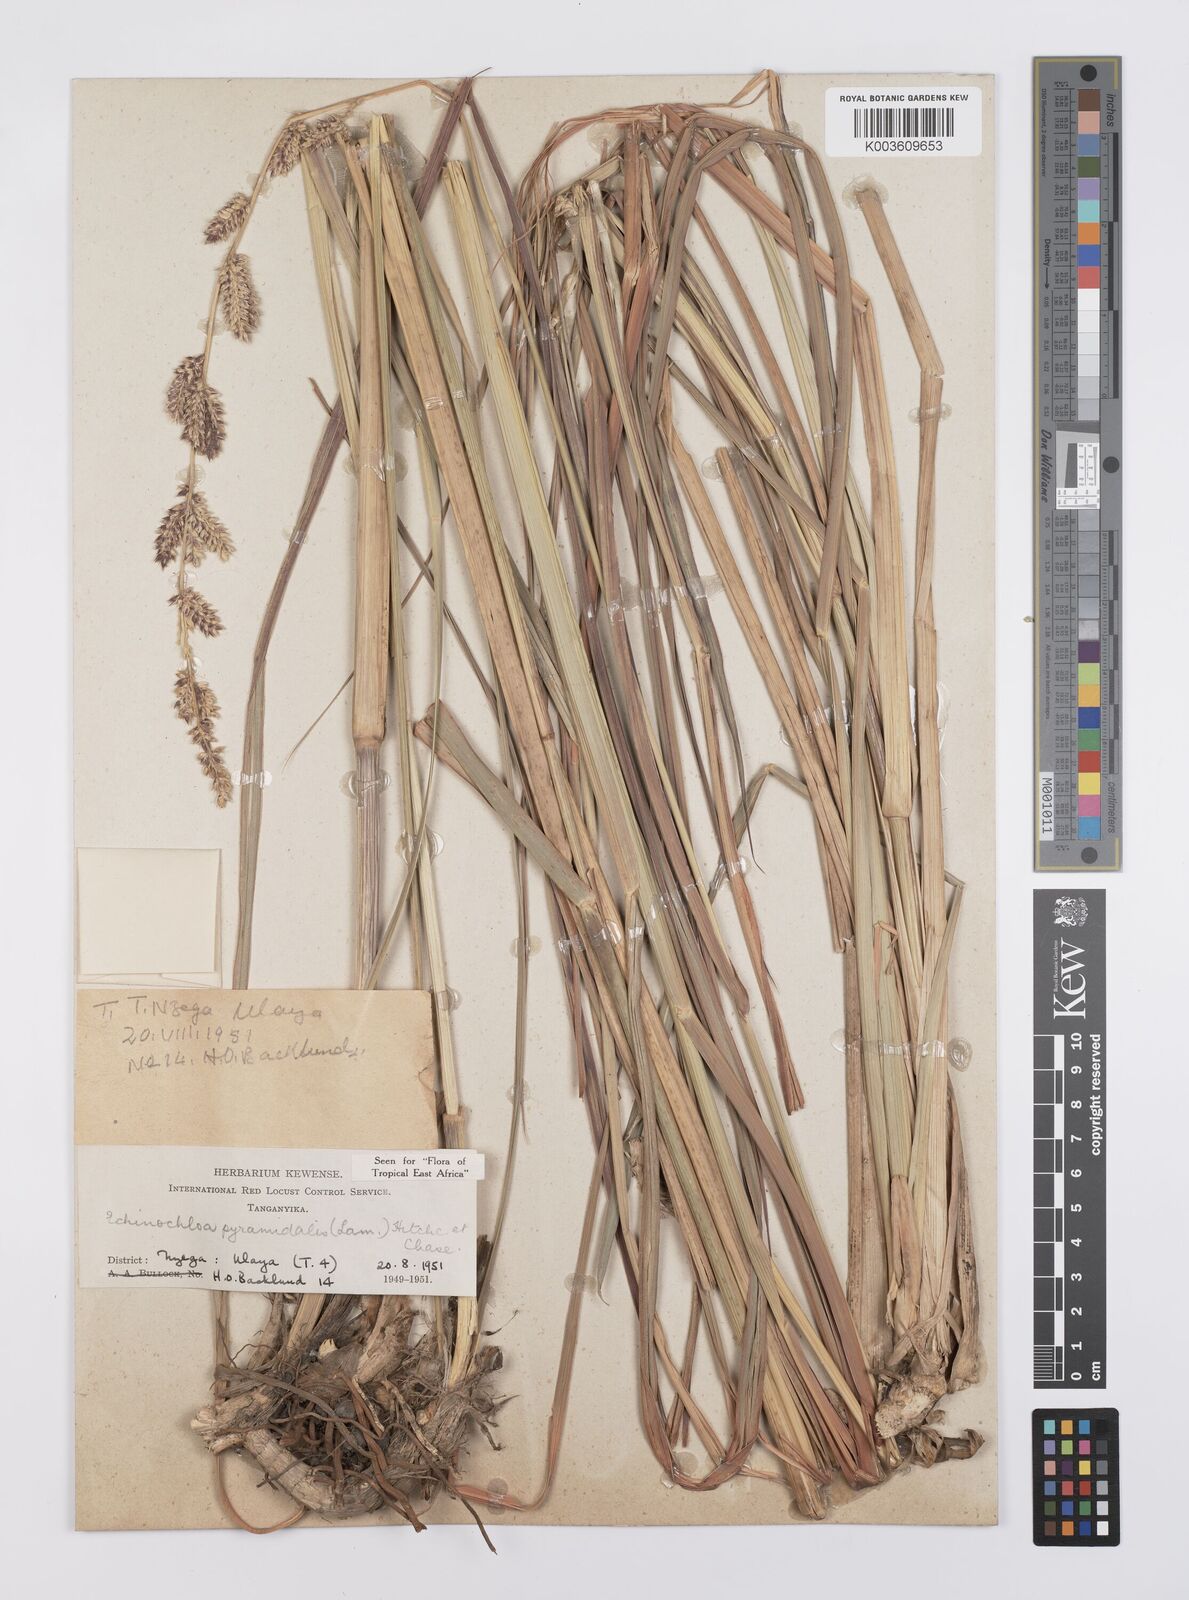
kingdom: Plantae
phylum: Tracheophyta
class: Liliopsida
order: Poales
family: Poaceae
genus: Echinochloa
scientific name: Echinochloa pyramidalis
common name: Antelope grass
